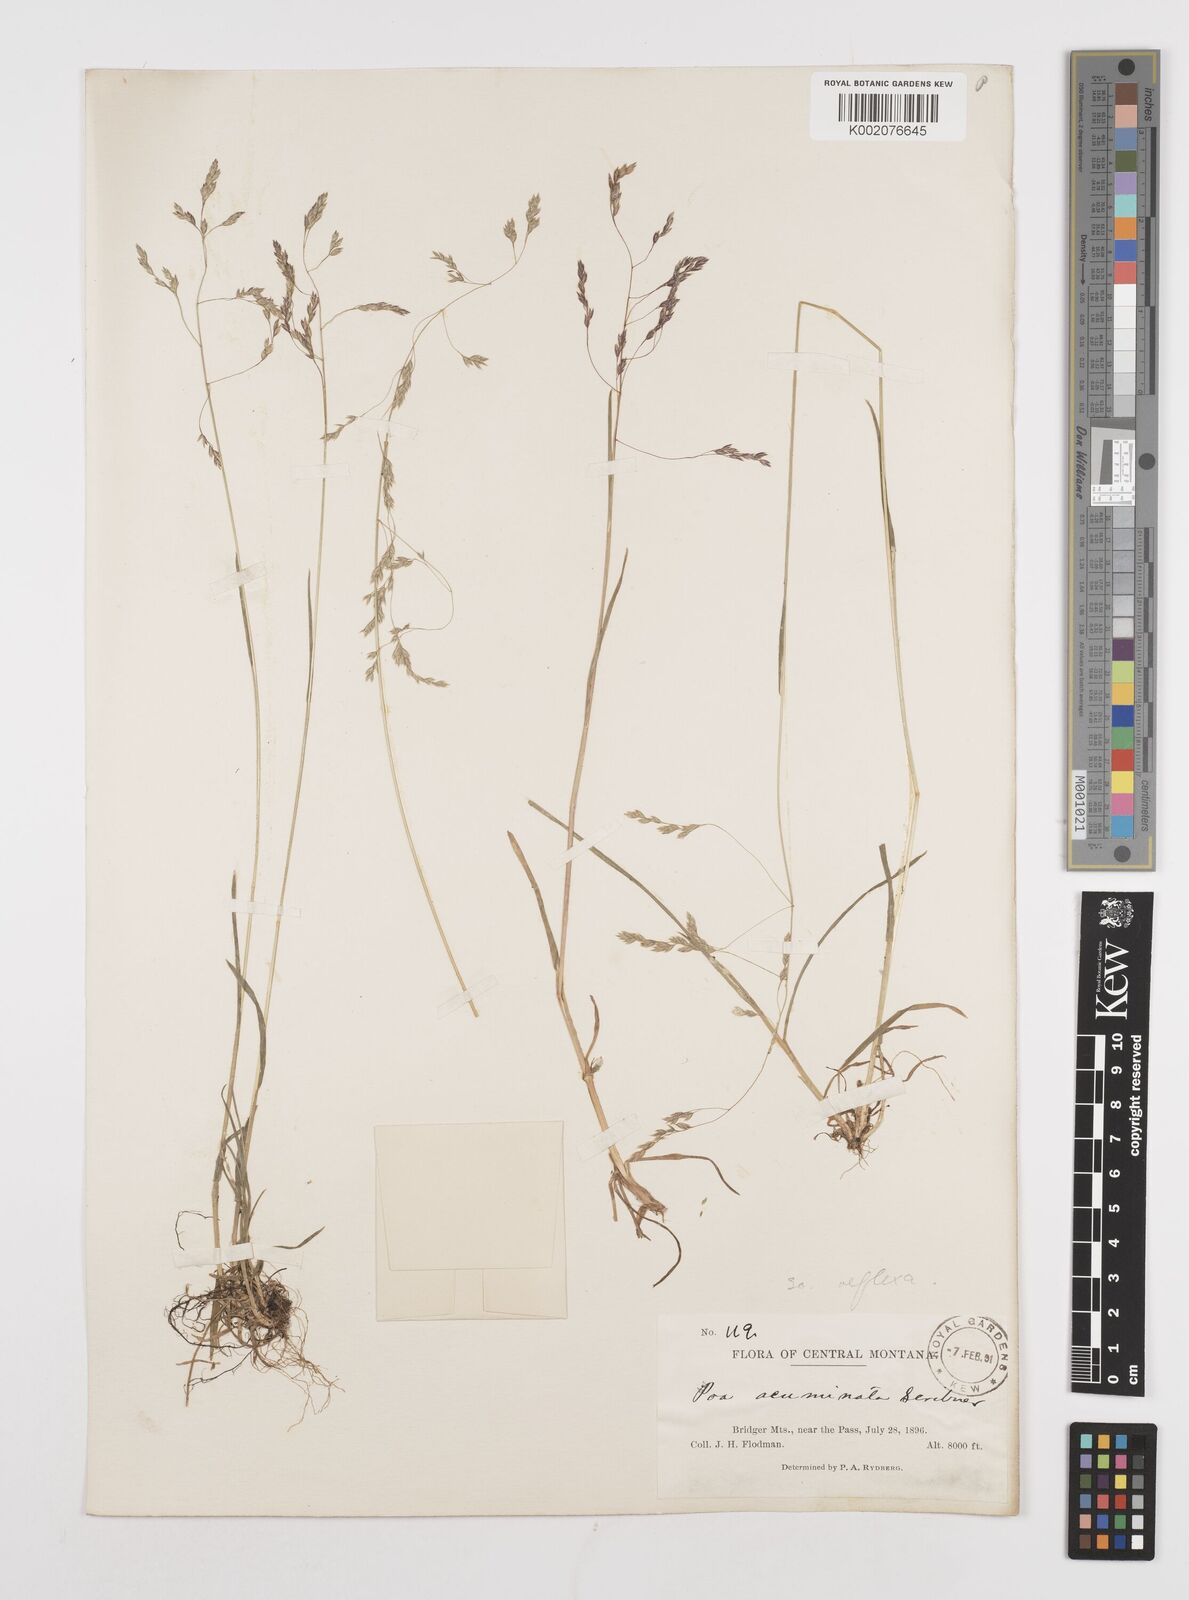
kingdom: Plantae
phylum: Tracheophyta
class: Liliopsida
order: Poales
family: Poaceae
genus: Poa
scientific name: Poa reflexa
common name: Nodding bluegrass
